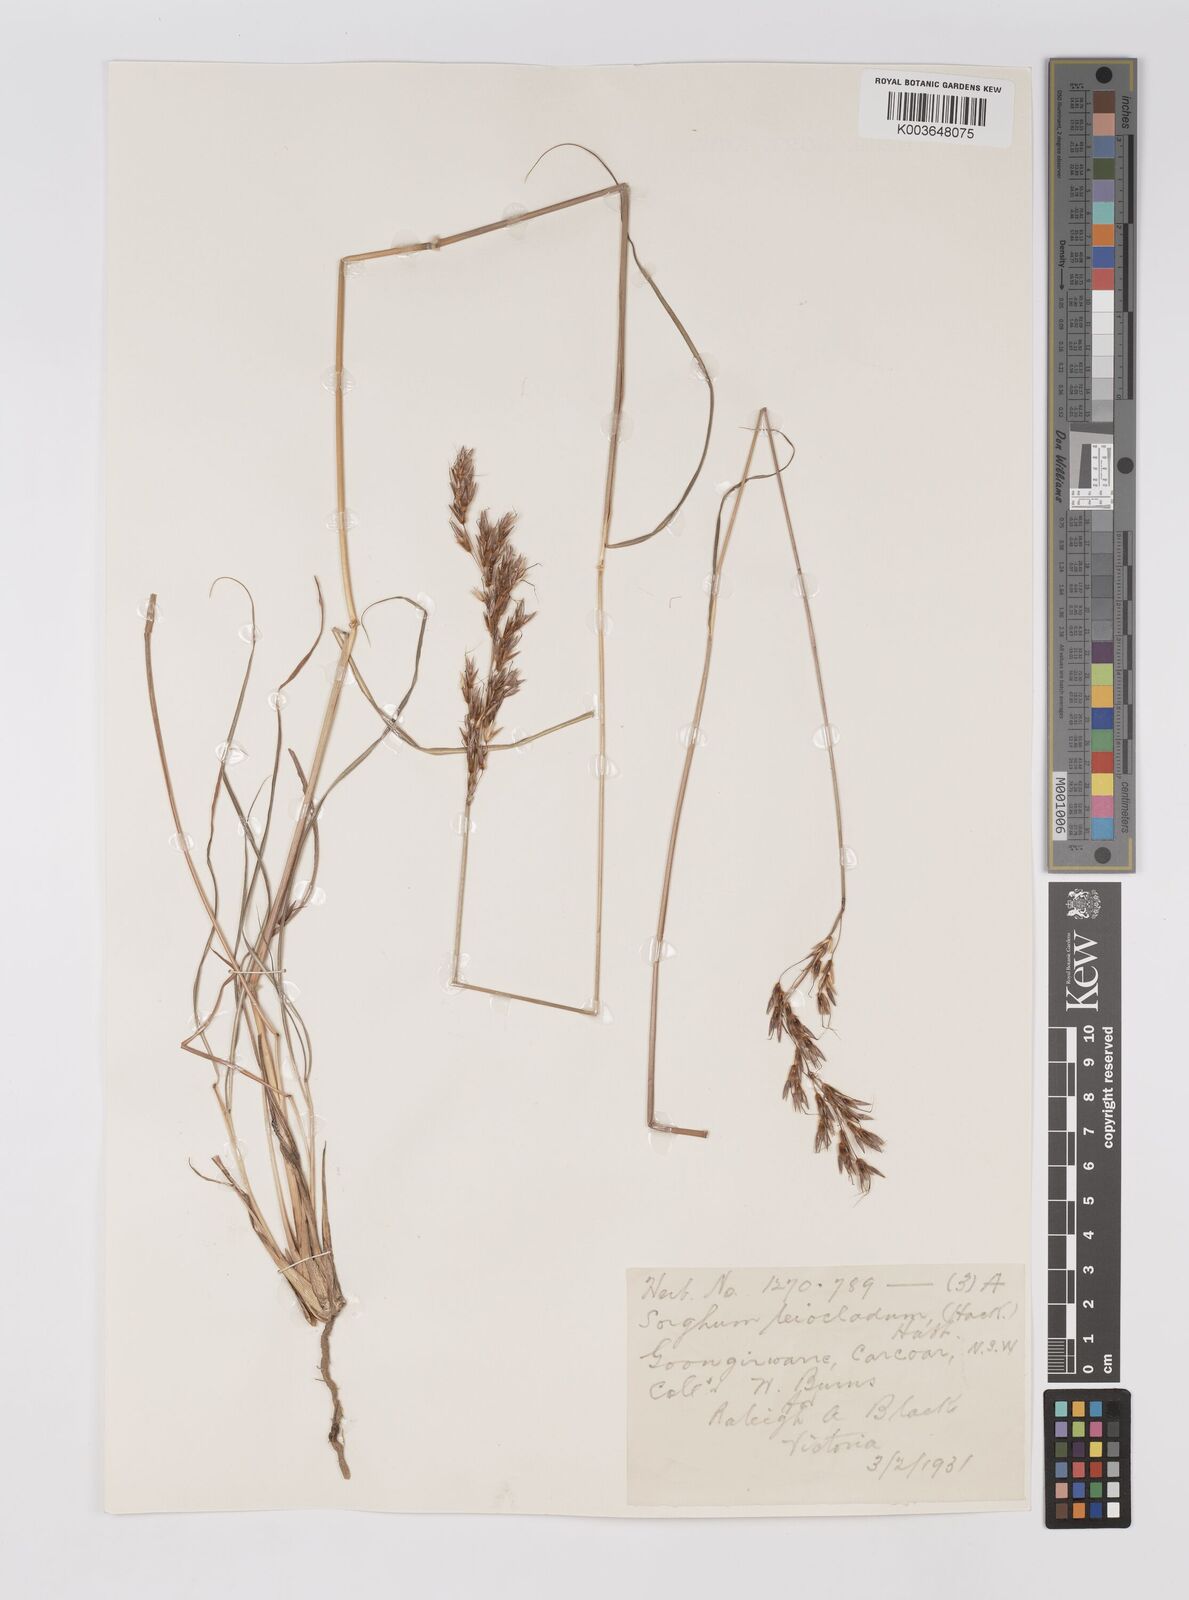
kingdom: Plantae
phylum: Tracheophyta
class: Liliopsida
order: Poales
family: Poaceae
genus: Sarga
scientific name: Sarga leioclada
